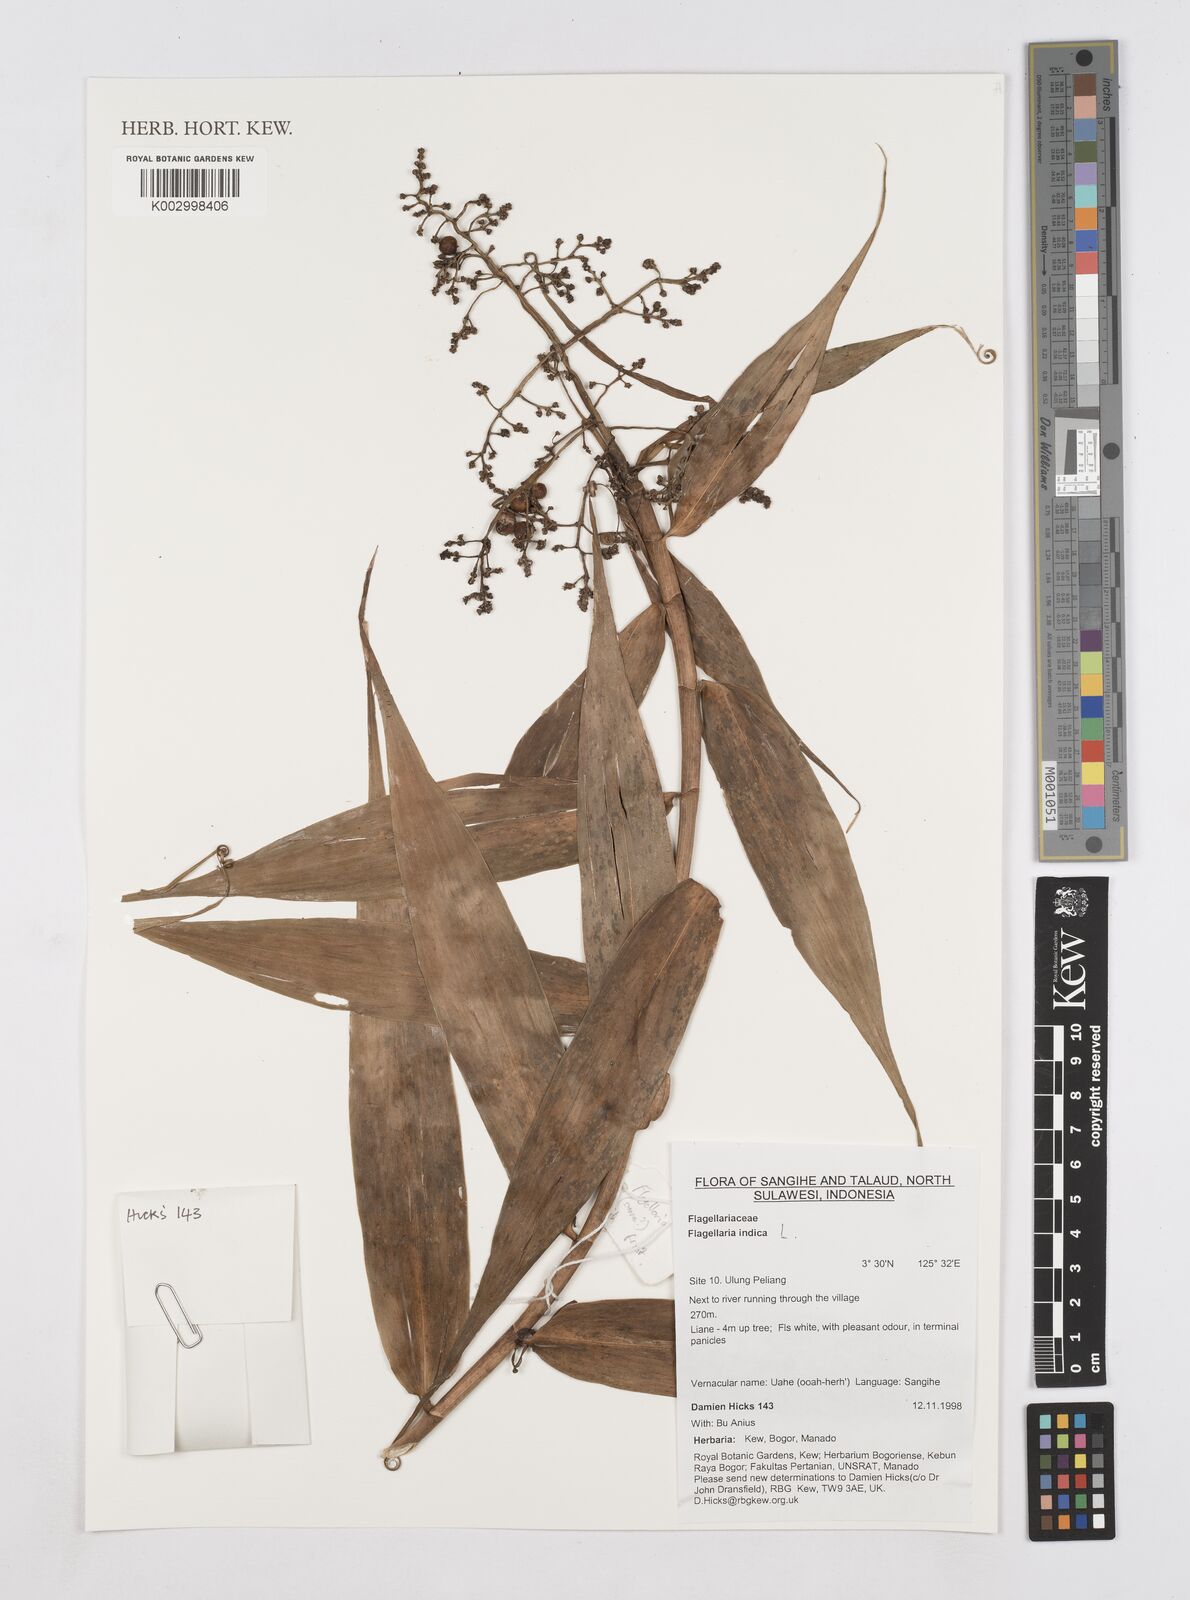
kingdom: Plantae
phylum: Tracheophyta
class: Liliopsida
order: Poales
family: Flagellariaceae
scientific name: Flagellariaceae
